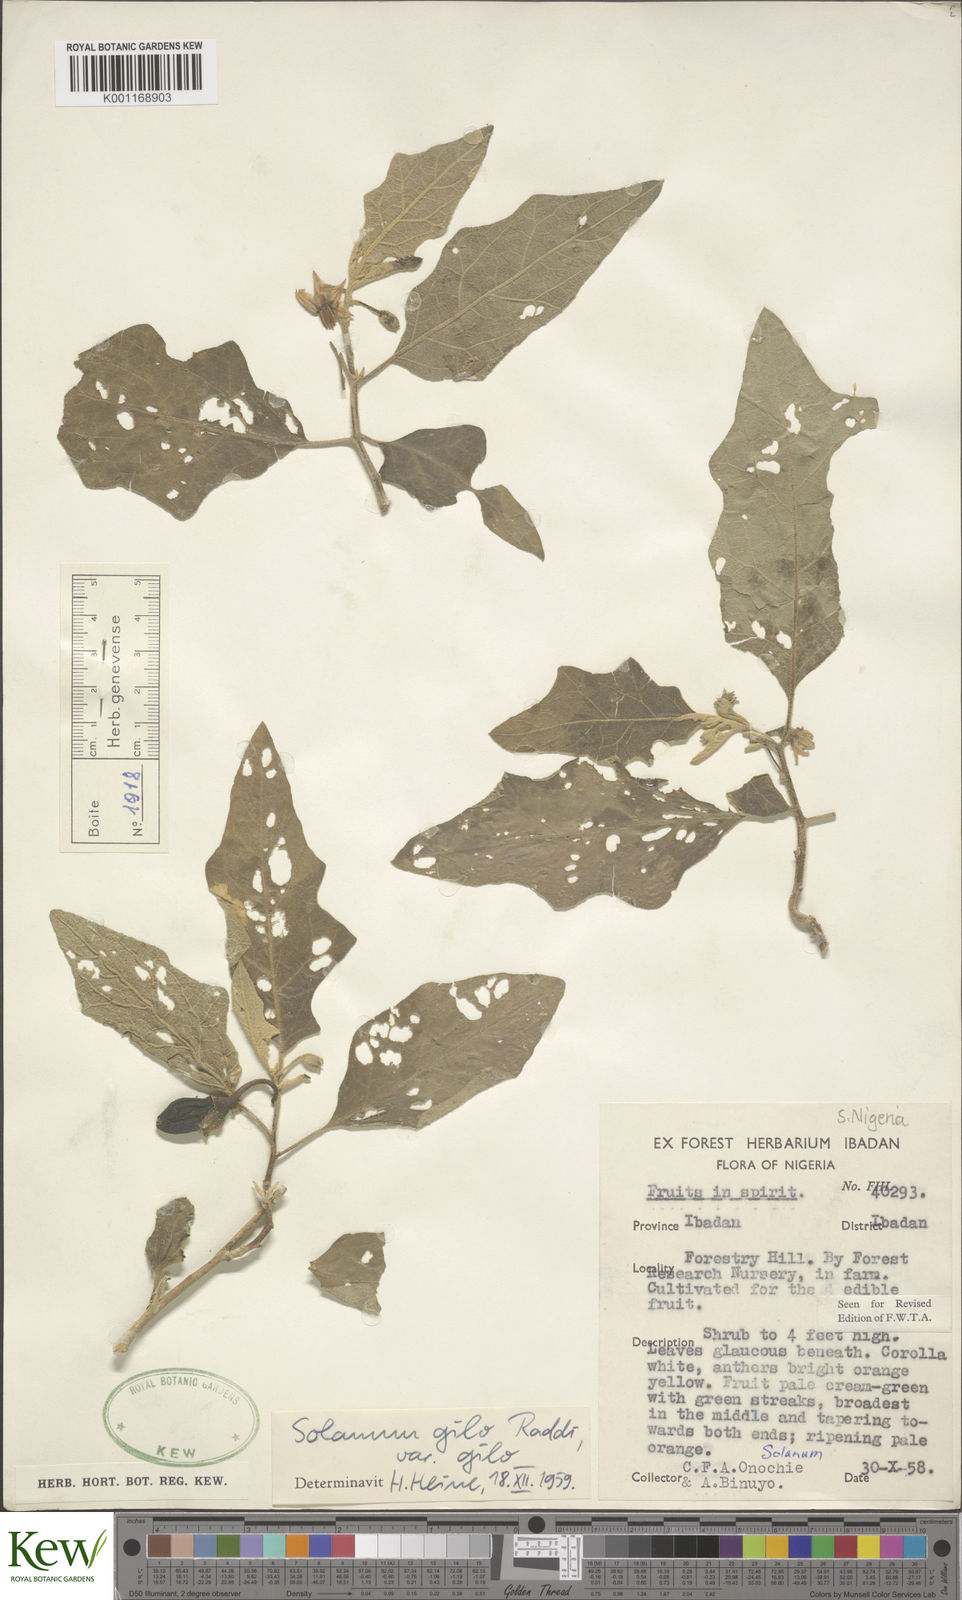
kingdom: Plantae
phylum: Tracheophyta
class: Magnoliopsida
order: Solanales
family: Solanaceae
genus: Solanum
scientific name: Solanum aethiopicum
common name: Gilo
